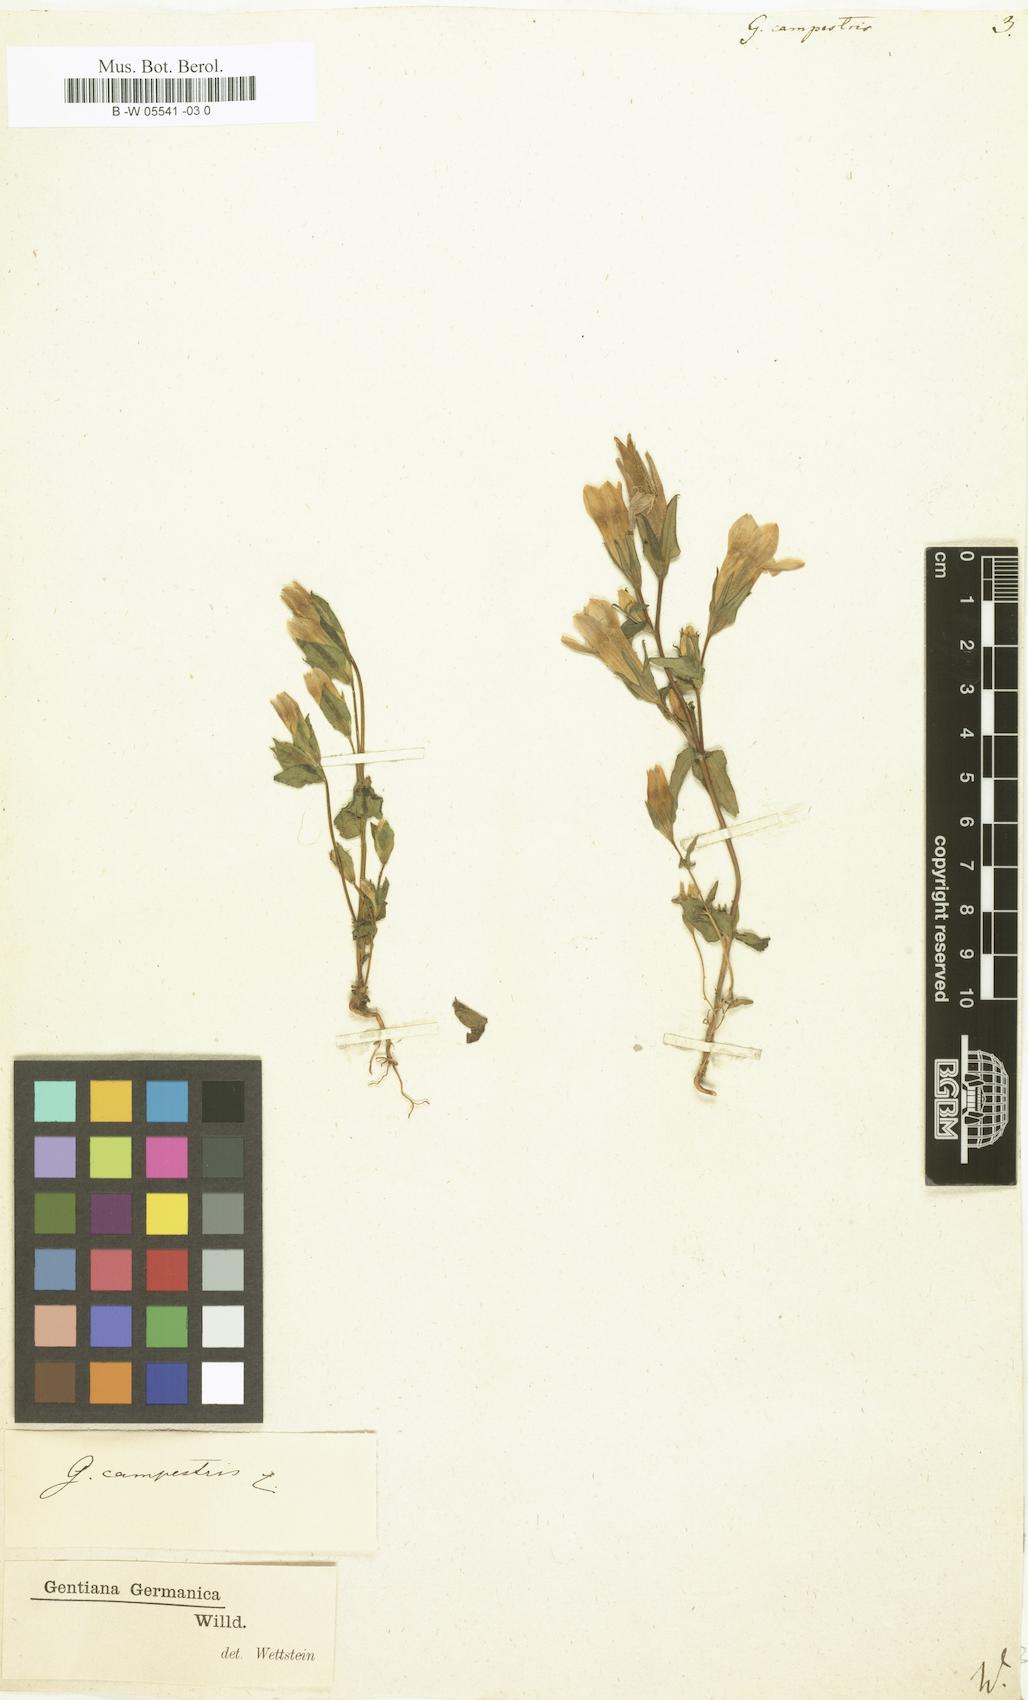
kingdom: Plantae
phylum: Tracheophyta
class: Magnoliopsida
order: Gentianales
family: Gentianaceae
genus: Gentianella
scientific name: Gentianella
